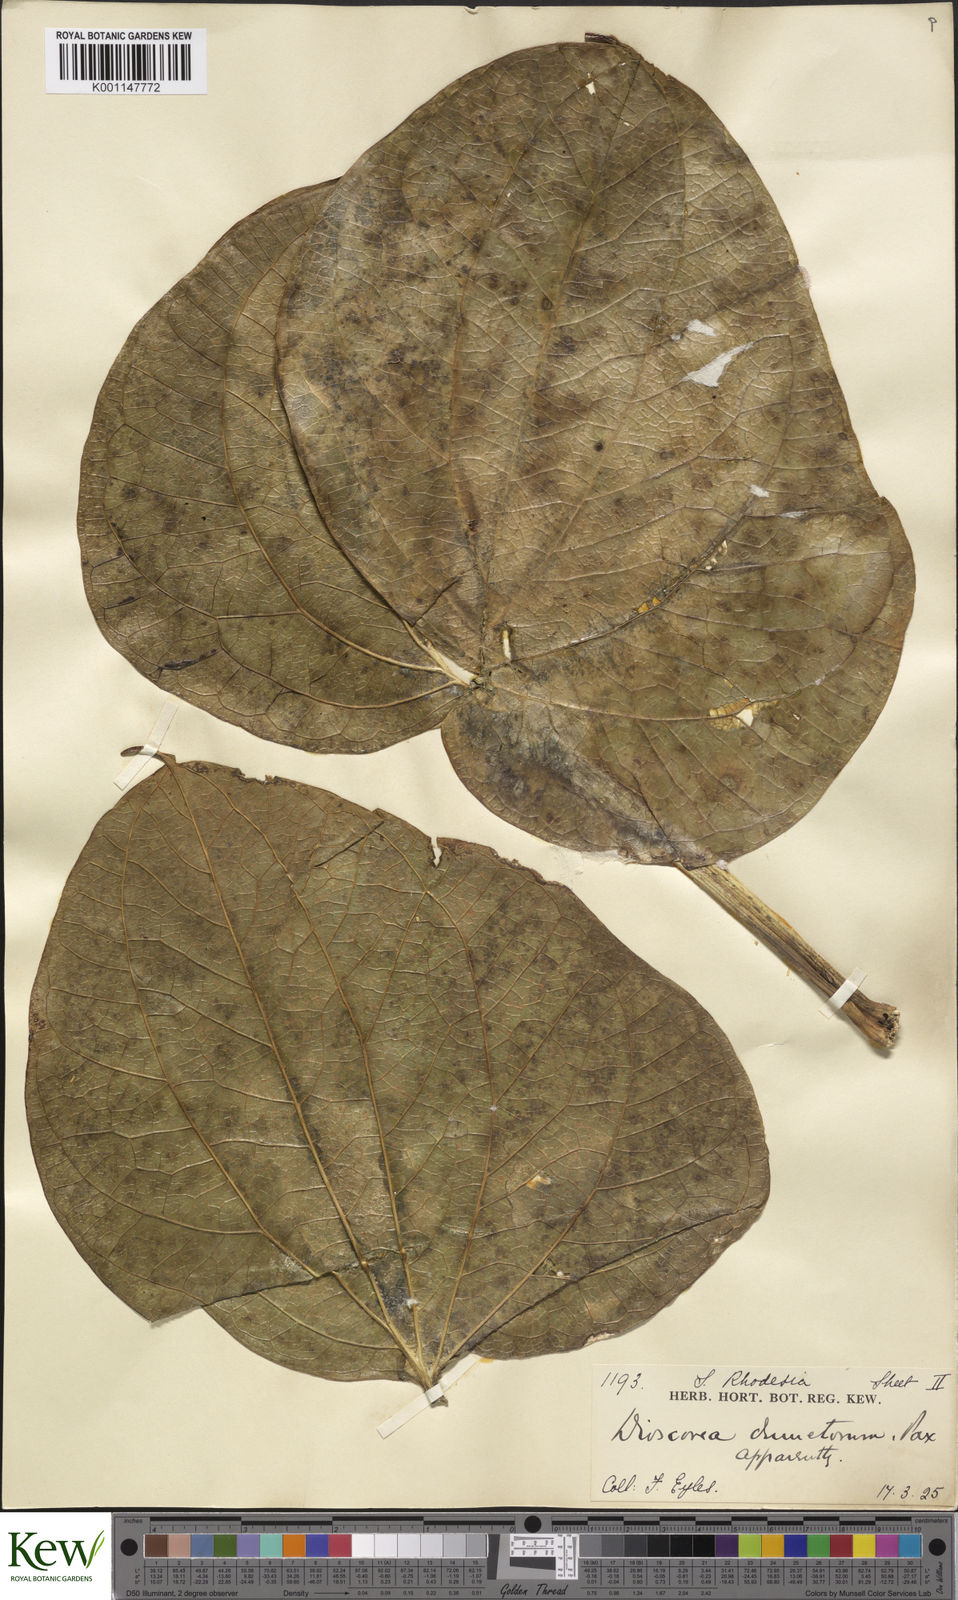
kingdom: Plantae
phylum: Tracheophyta
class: Liliopsida
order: Dioscoreales
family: Dioscoreaceae
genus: Dioscorea
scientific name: Dioscorea cochleariapiculata
